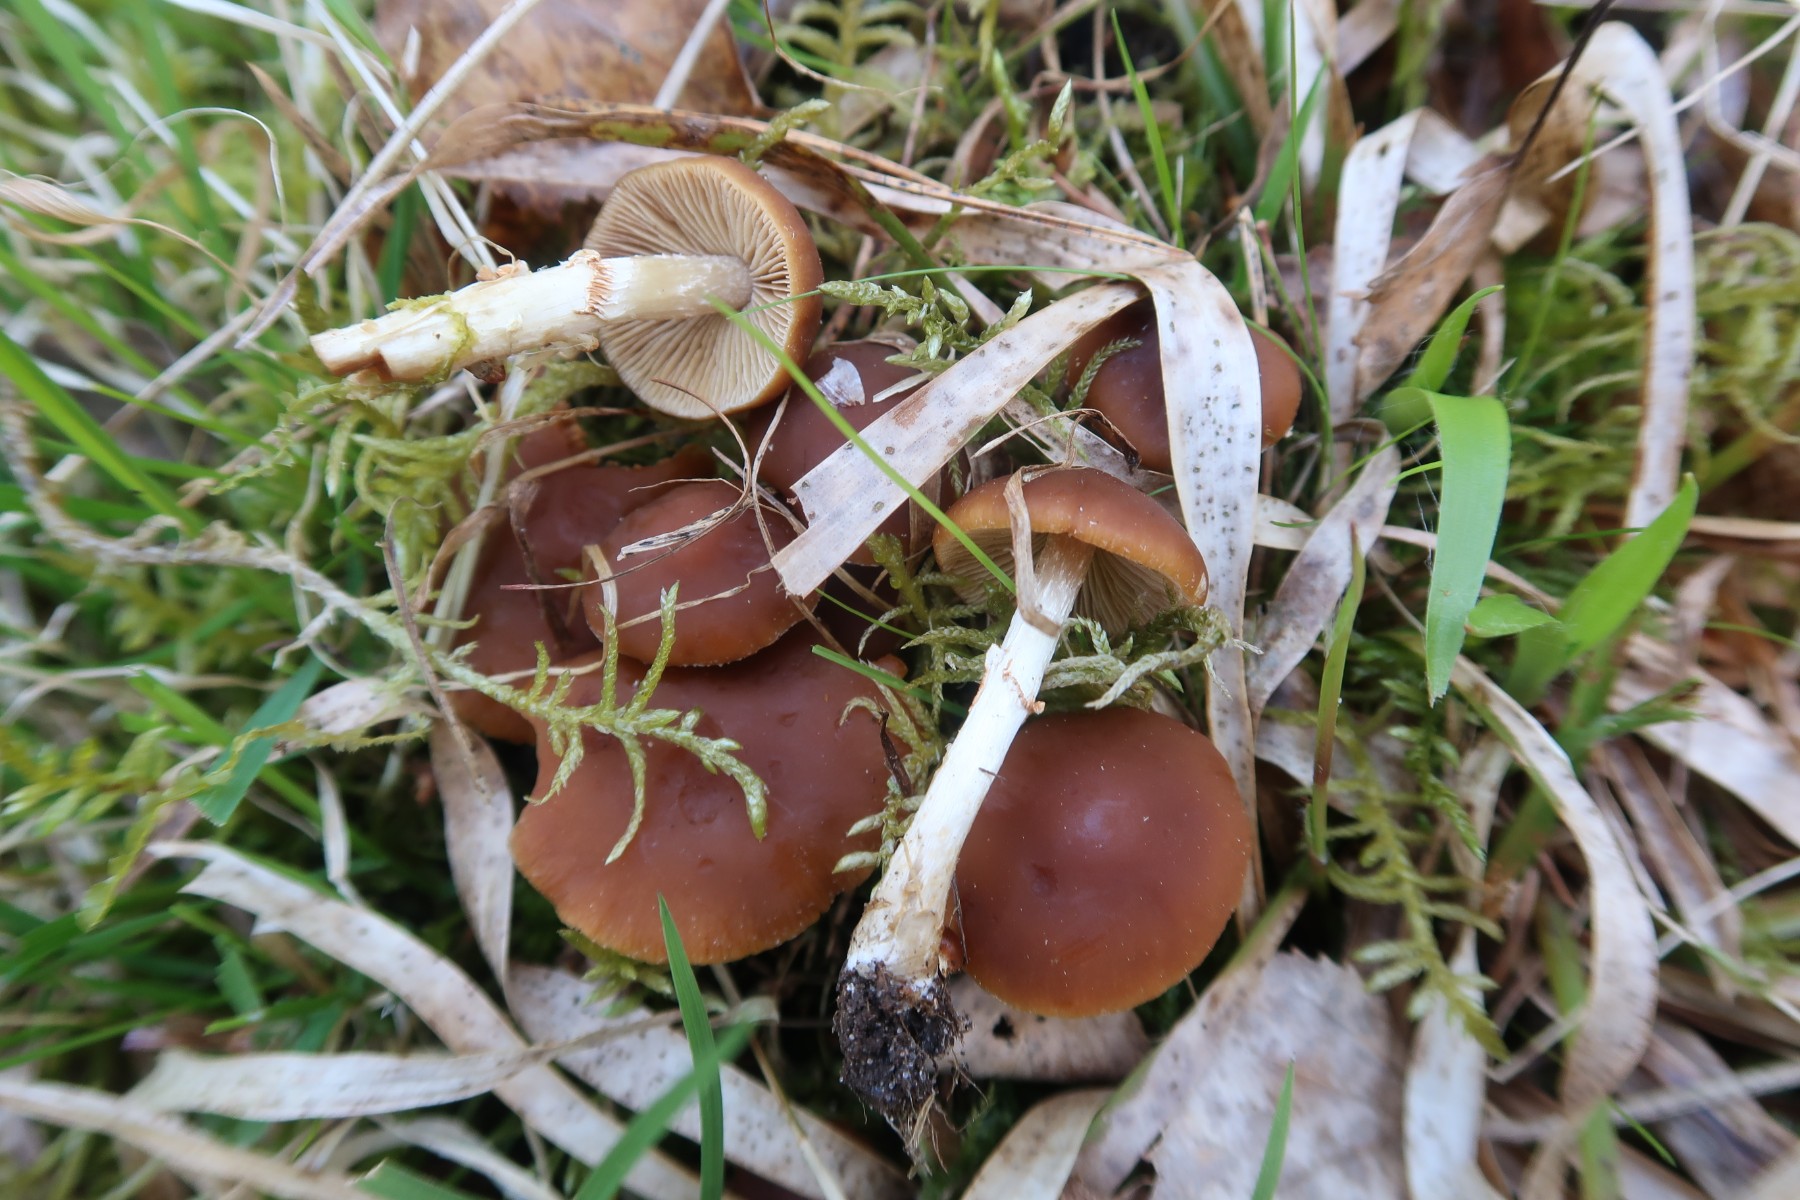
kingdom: Fungi
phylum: Basidiomycota
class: Agaricomycetes
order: Agaricales
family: Bolbitiaceae
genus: Conocybe
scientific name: Conocybe aporos
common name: tidlig dansehat
